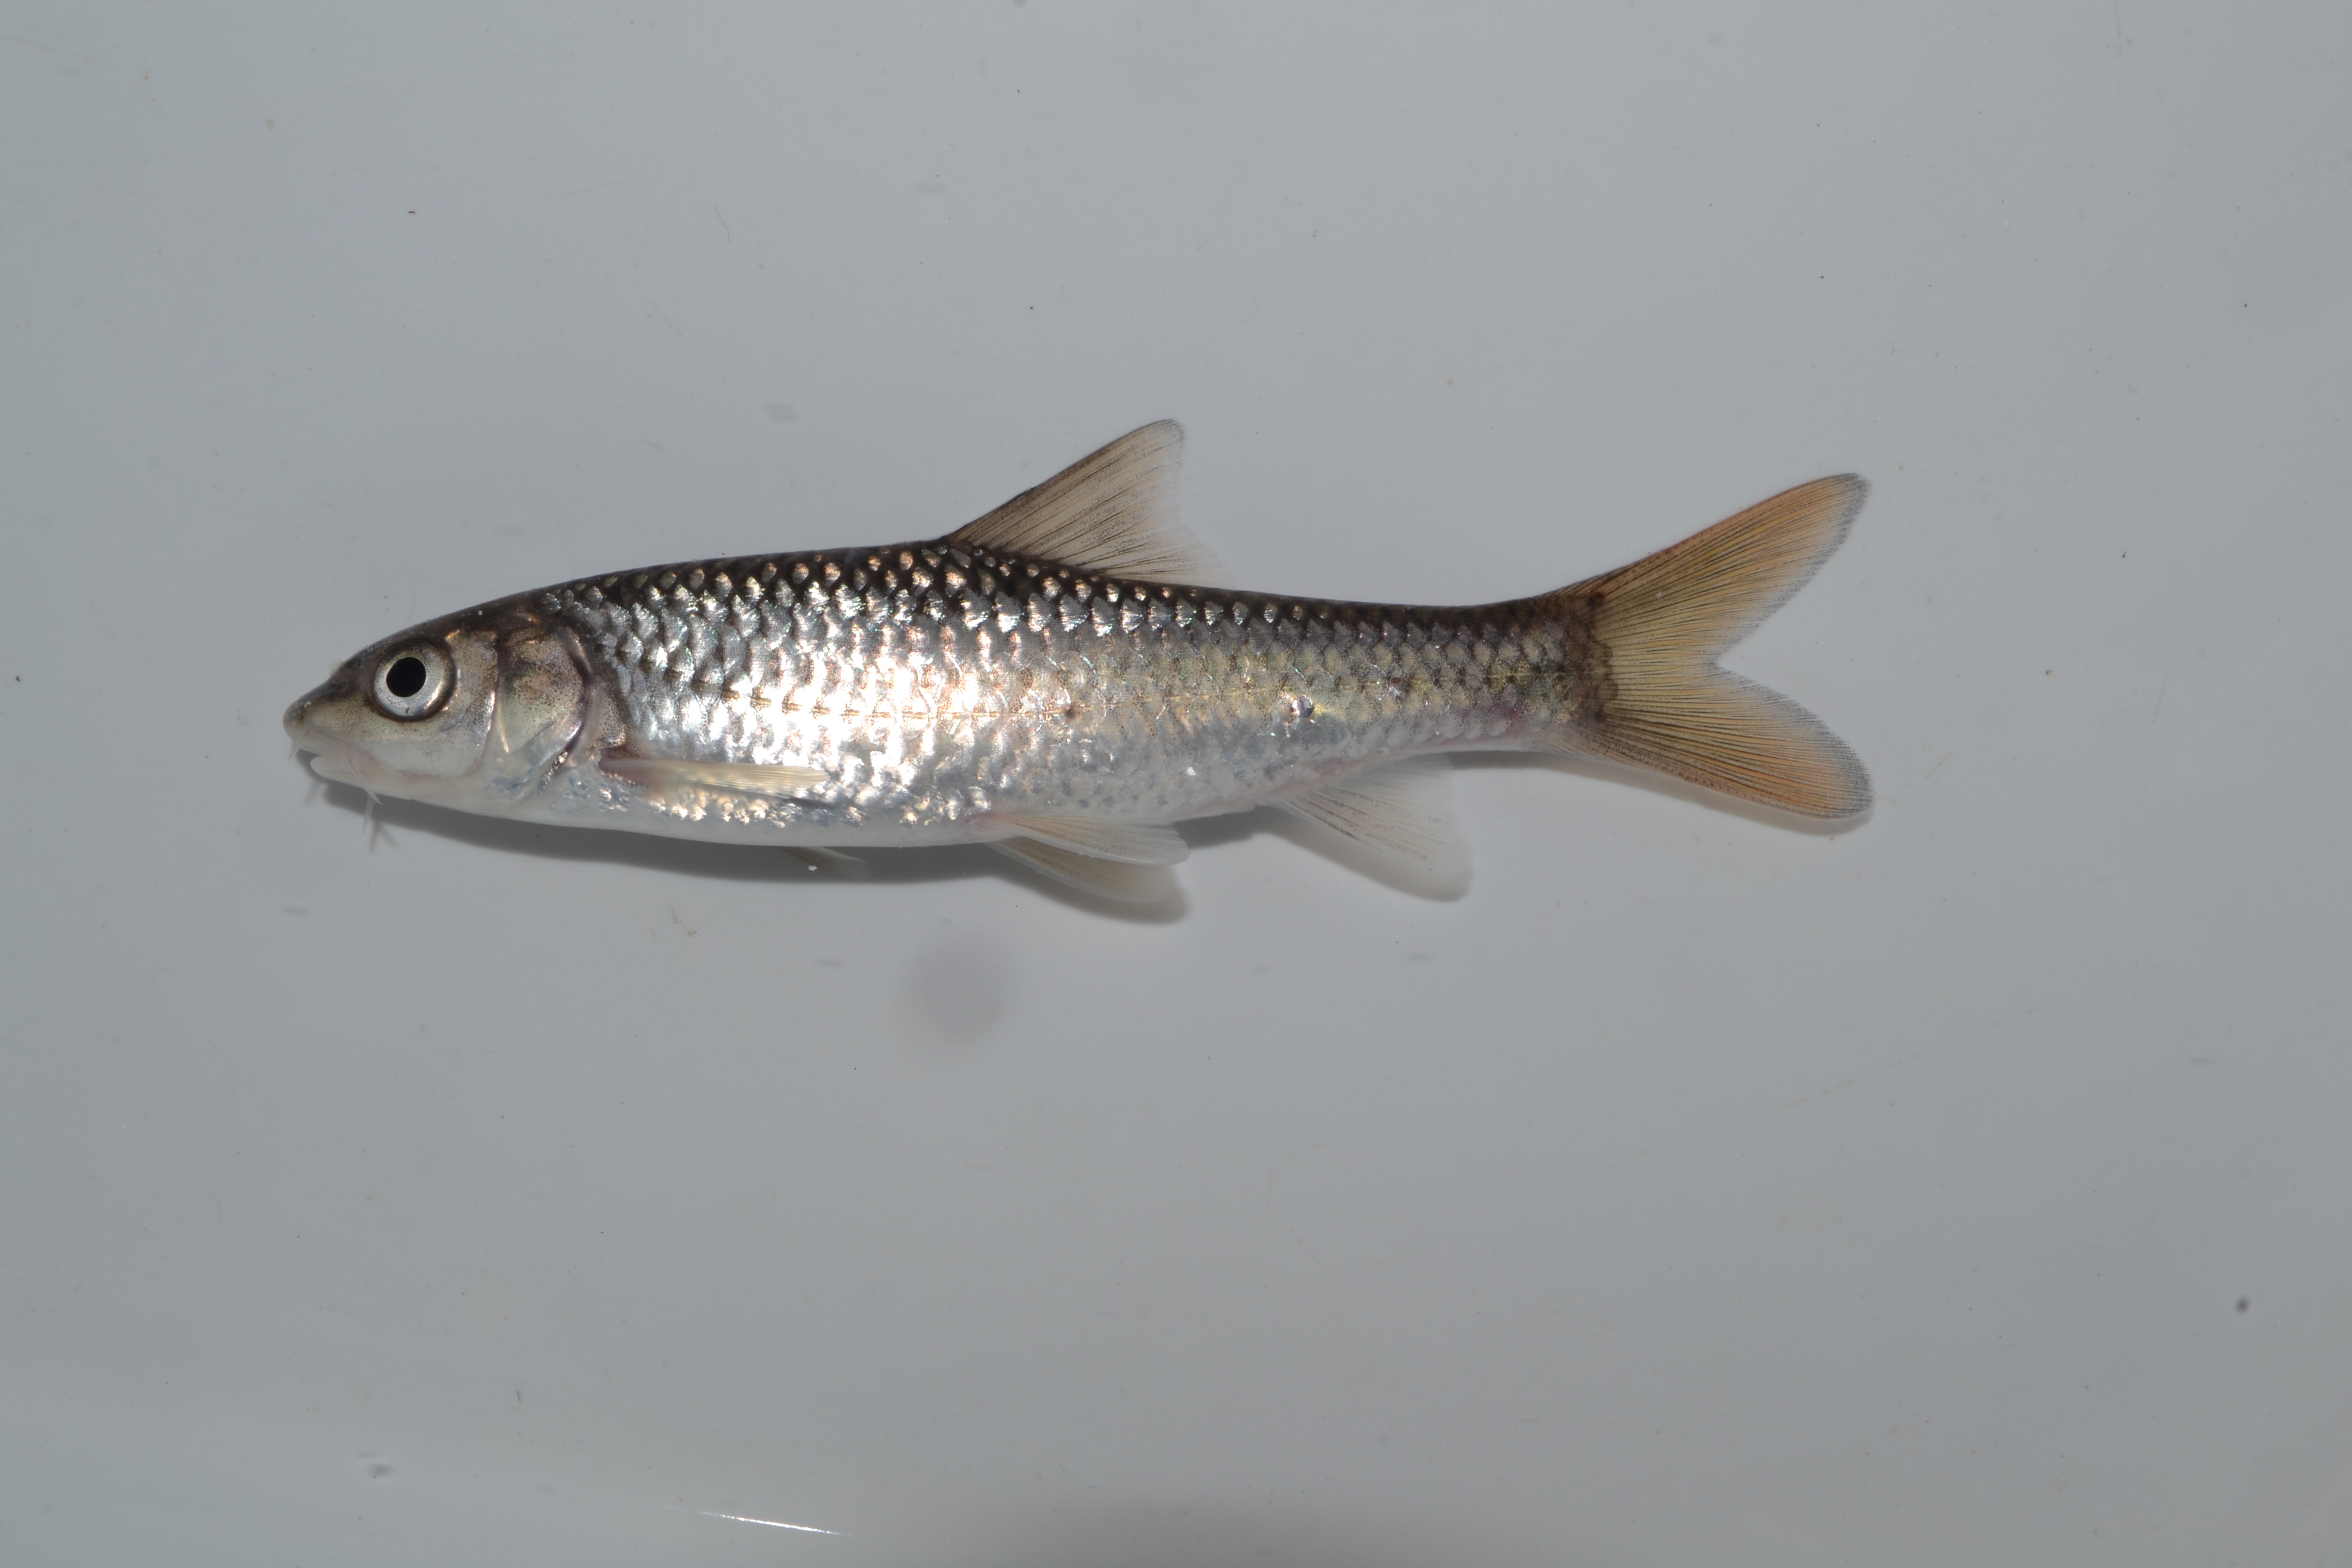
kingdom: Animalia
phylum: Chordata
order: Cypriniformes
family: Cyprinidae
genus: Labeobarbus
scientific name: Labeobarbus natalensis
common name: Scaly
